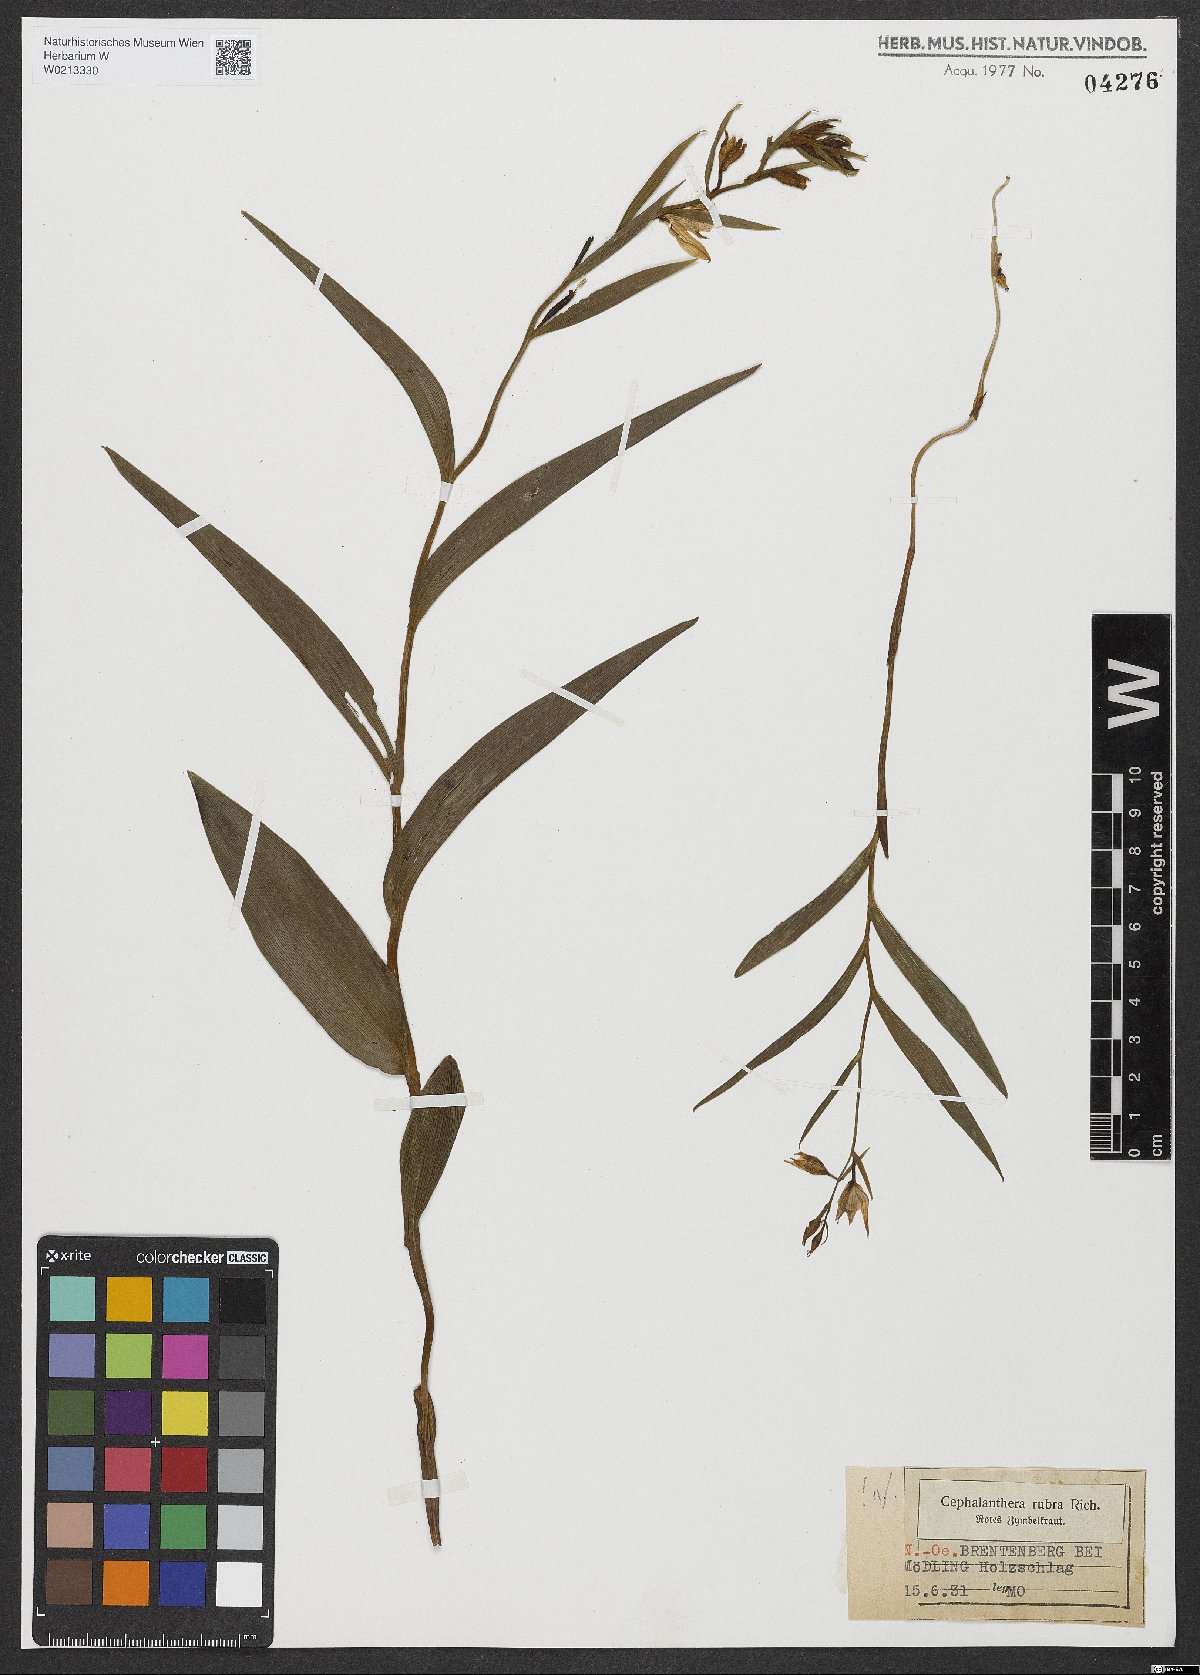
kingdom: Plantae
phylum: Tracheophyta
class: Liliopsida
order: Asparagales
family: Orchidaceae
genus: Cephalanthera
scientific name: Cephalanthera rubra
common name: Red helleborine
